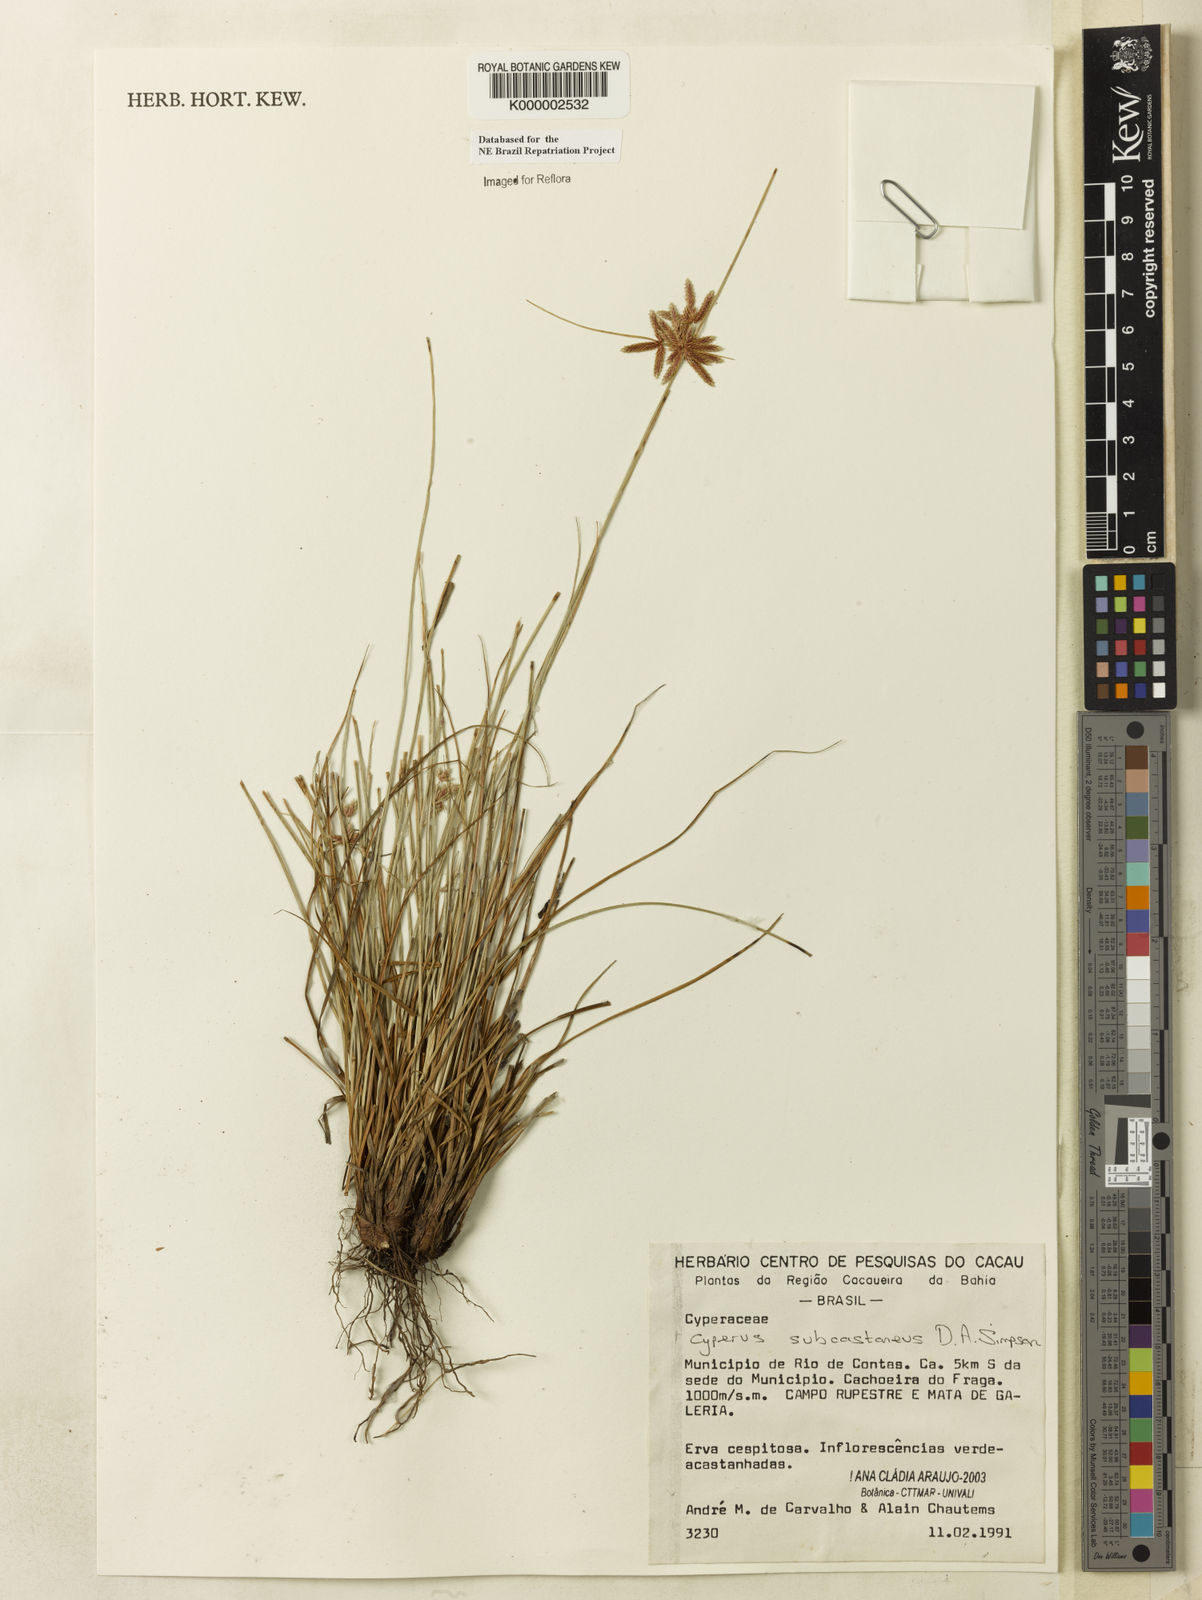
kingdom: Plantae
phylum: Tracheophyta
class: Liliopsida
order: Poales
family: Cyperaceae
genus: Cyperus
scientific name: Cyperus subcastaneus
